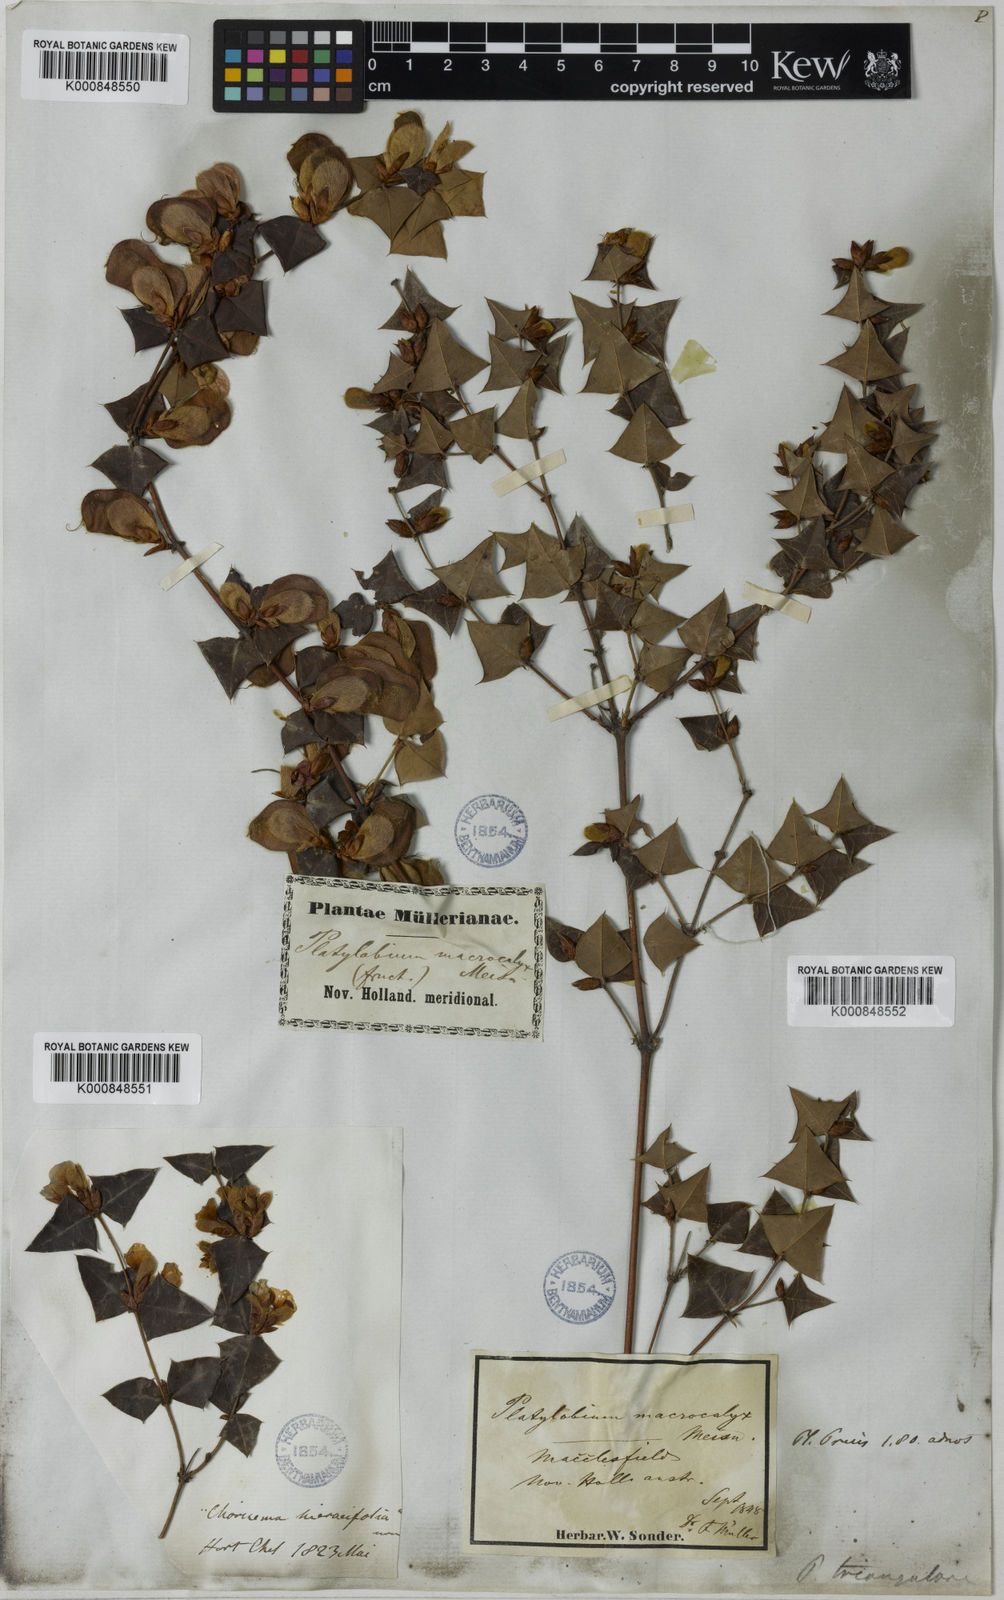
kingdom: Plantae
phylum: Tracheophyta
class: Magnoliopsida
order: Fabales
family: Fabaceae
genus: Platylobium
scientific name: Platylobium obtusangulum
